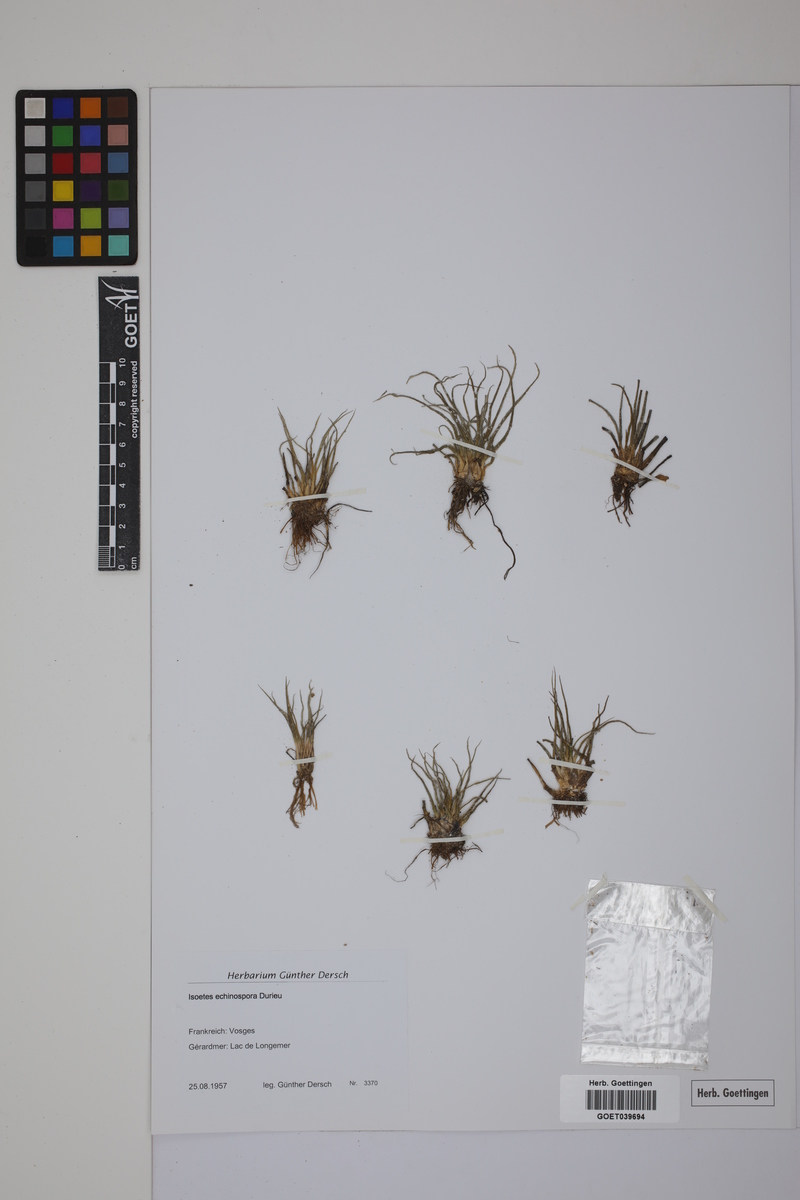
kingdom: Plantae
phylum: Tracheophyta
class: Lycopodiopsida
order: Isoetales
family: Isoetaceae
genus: Isoetes
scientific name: Isoetes echinospora
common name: Spring quillwort
